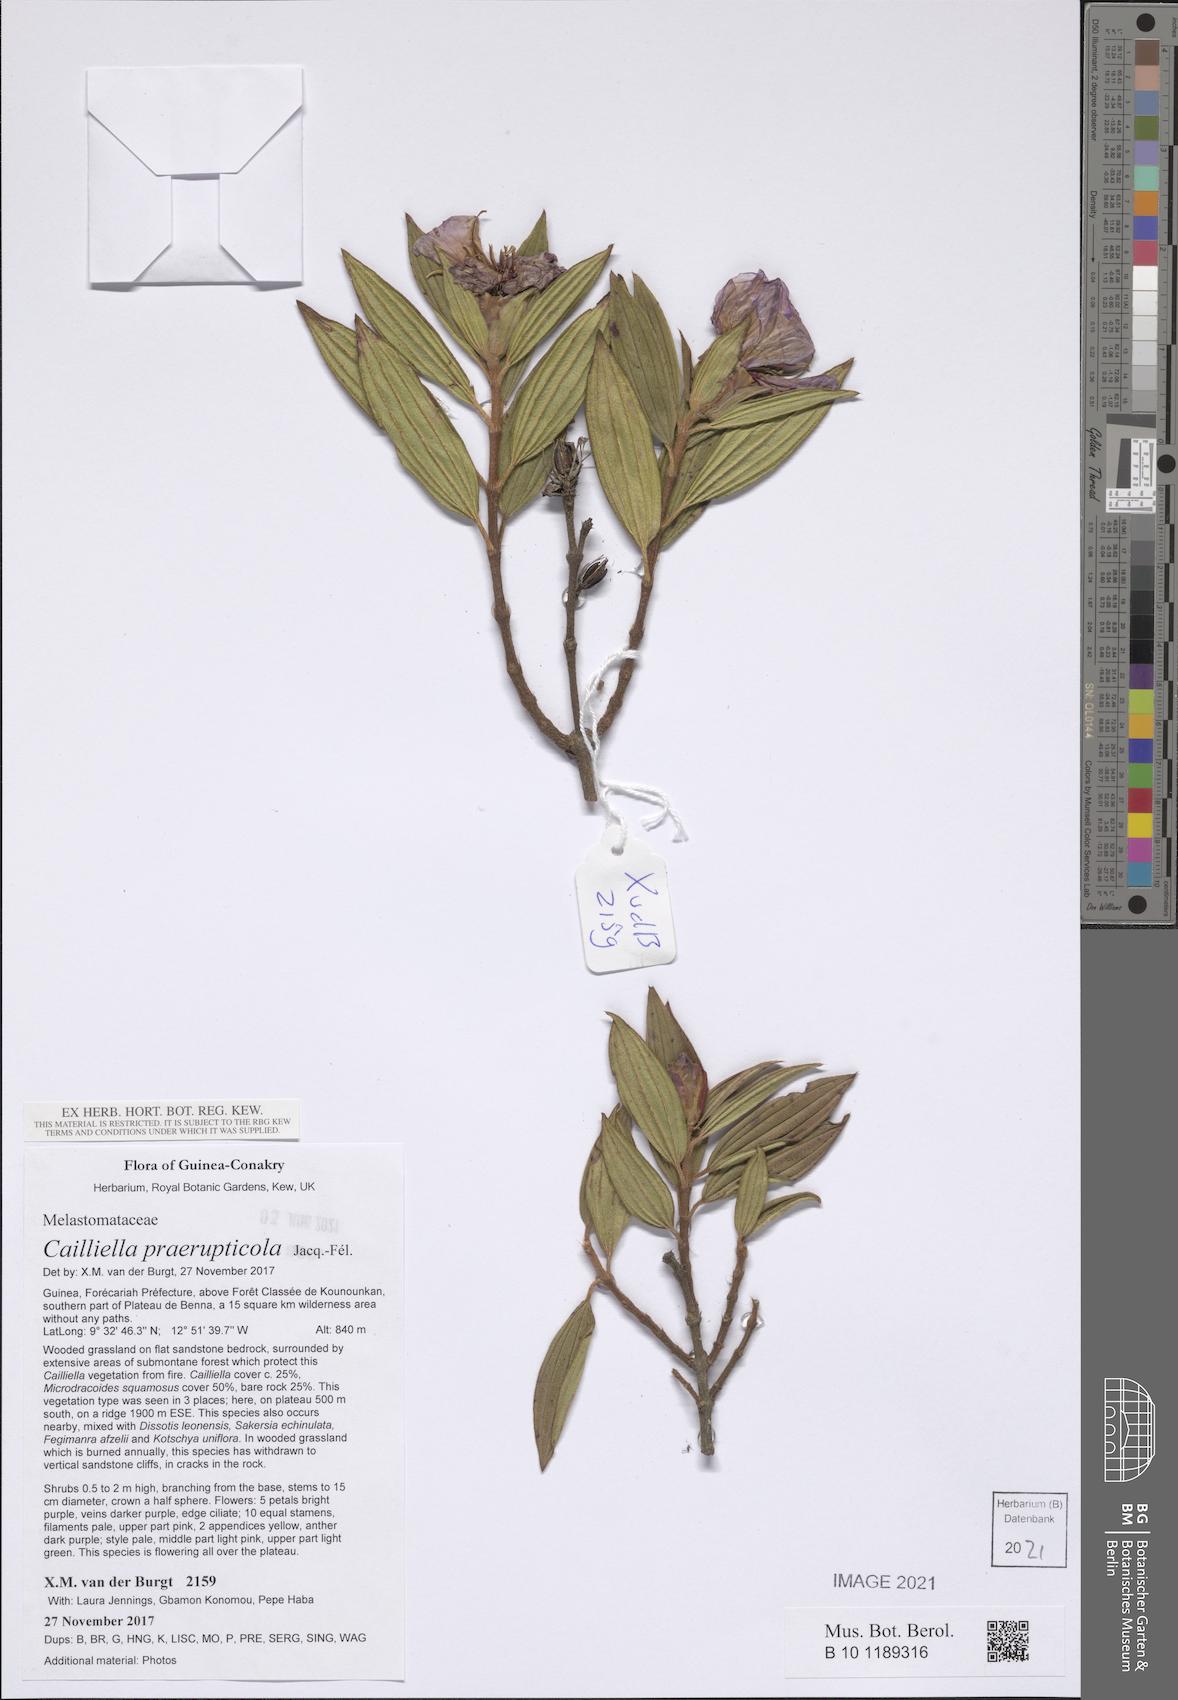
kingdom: Plantae
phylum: Tracheophyta
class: Magnoliopsida
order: Myrtales
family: Melastomataceae
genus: Cailliella
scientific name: Cailliella praerupticola
